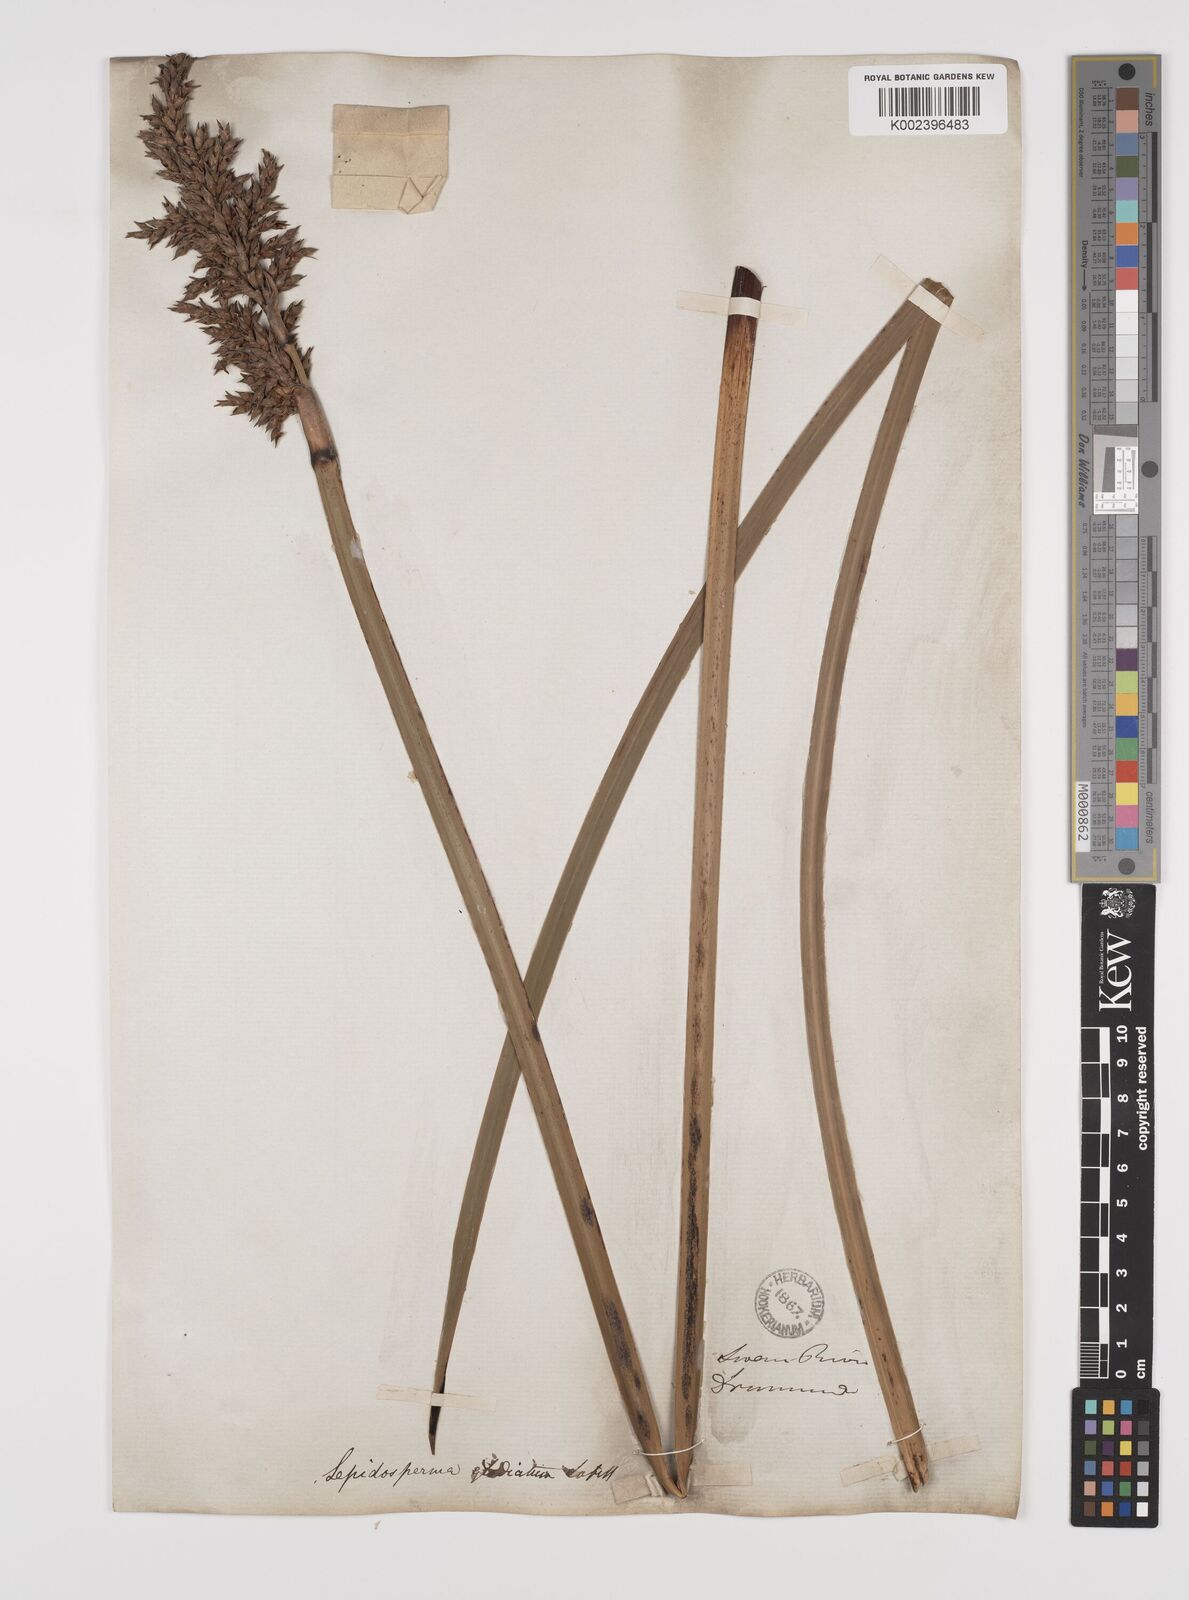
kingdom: Plantae
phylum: Tracheophyta
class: Liliopsida
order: Poales
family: Cyperaceae
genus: Lepidosperma
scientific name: Lepidosperma gladiatum
